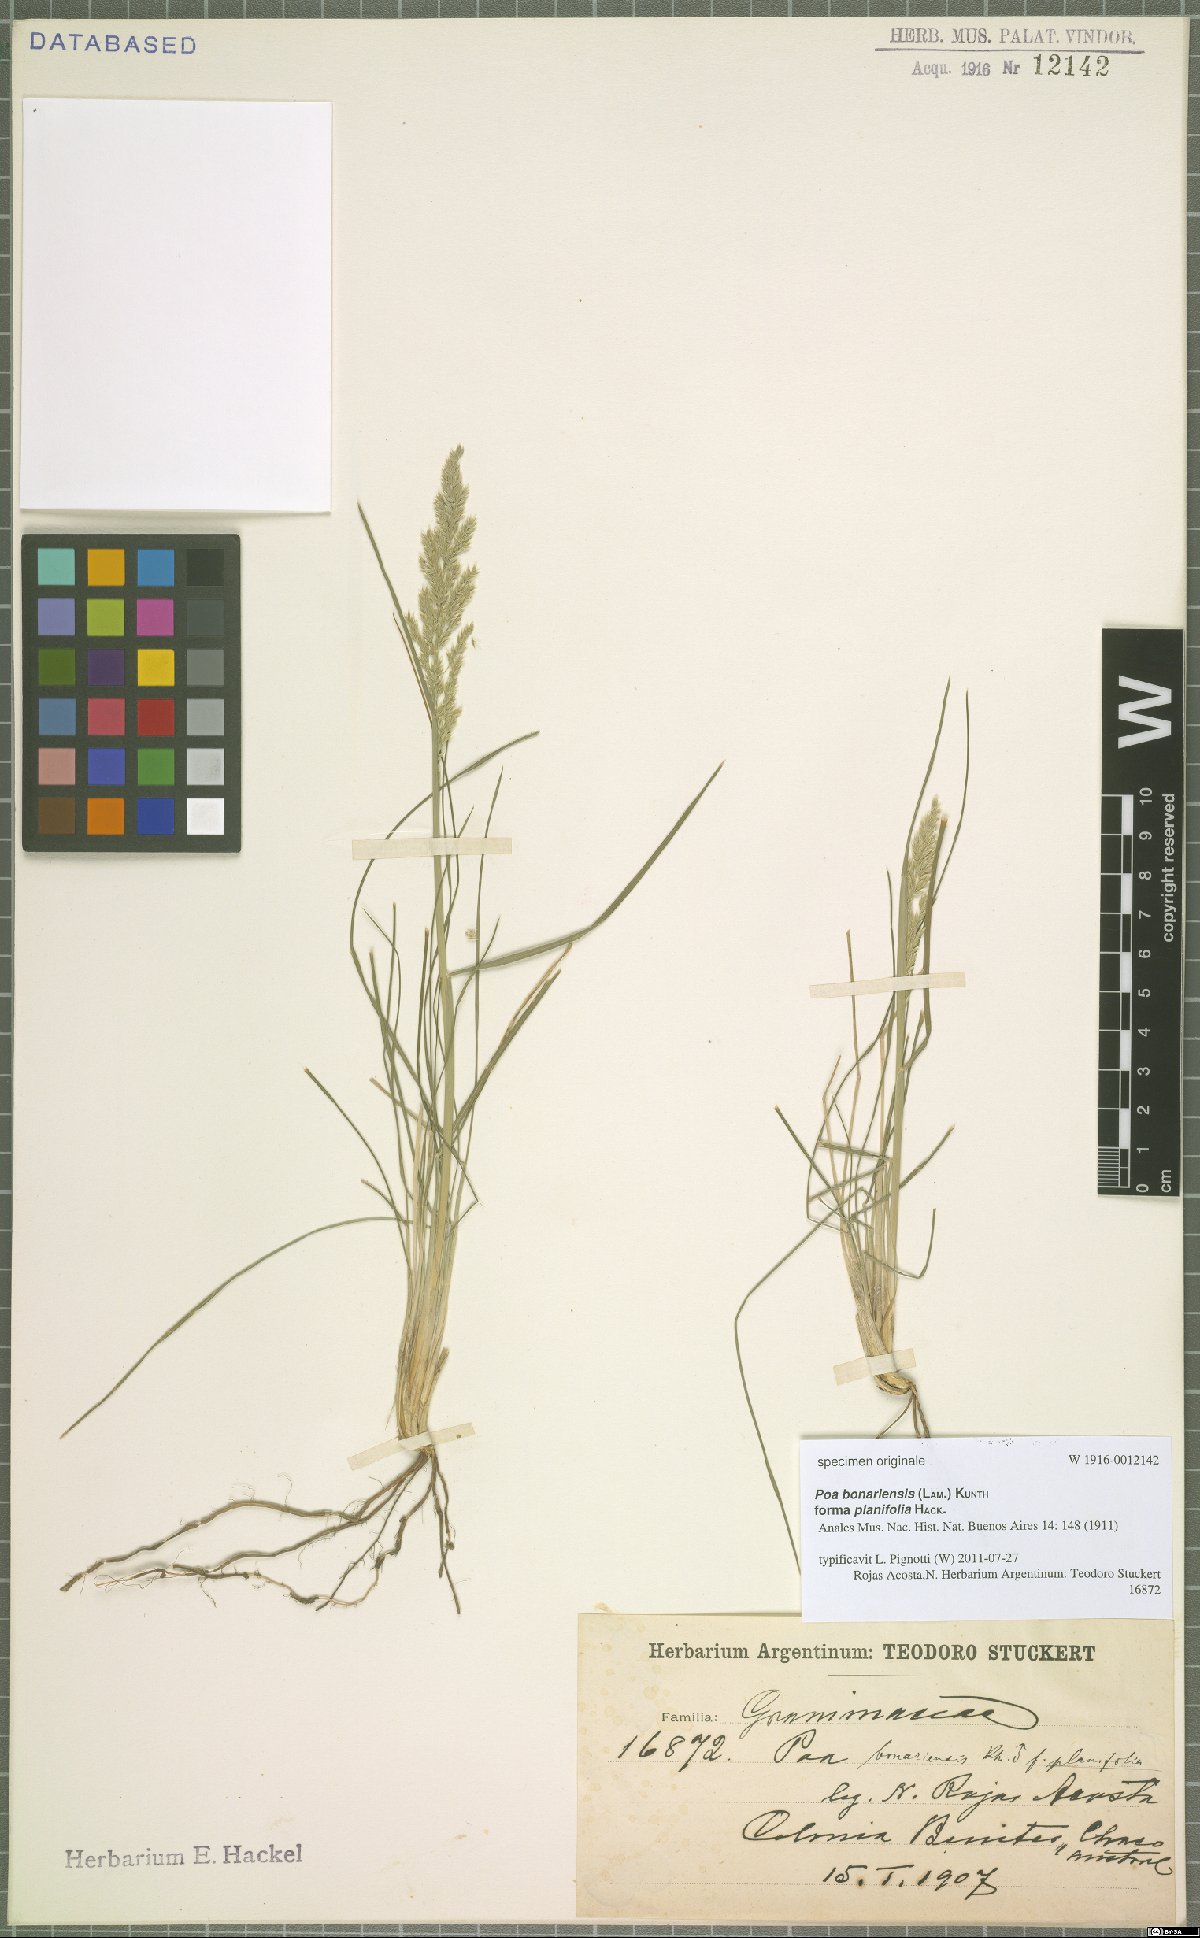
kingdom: Plantae
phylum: Tracheophyta
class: Liliopsida
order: Poales
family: Poaceae
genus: Poa
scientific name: Poa bonariensis
